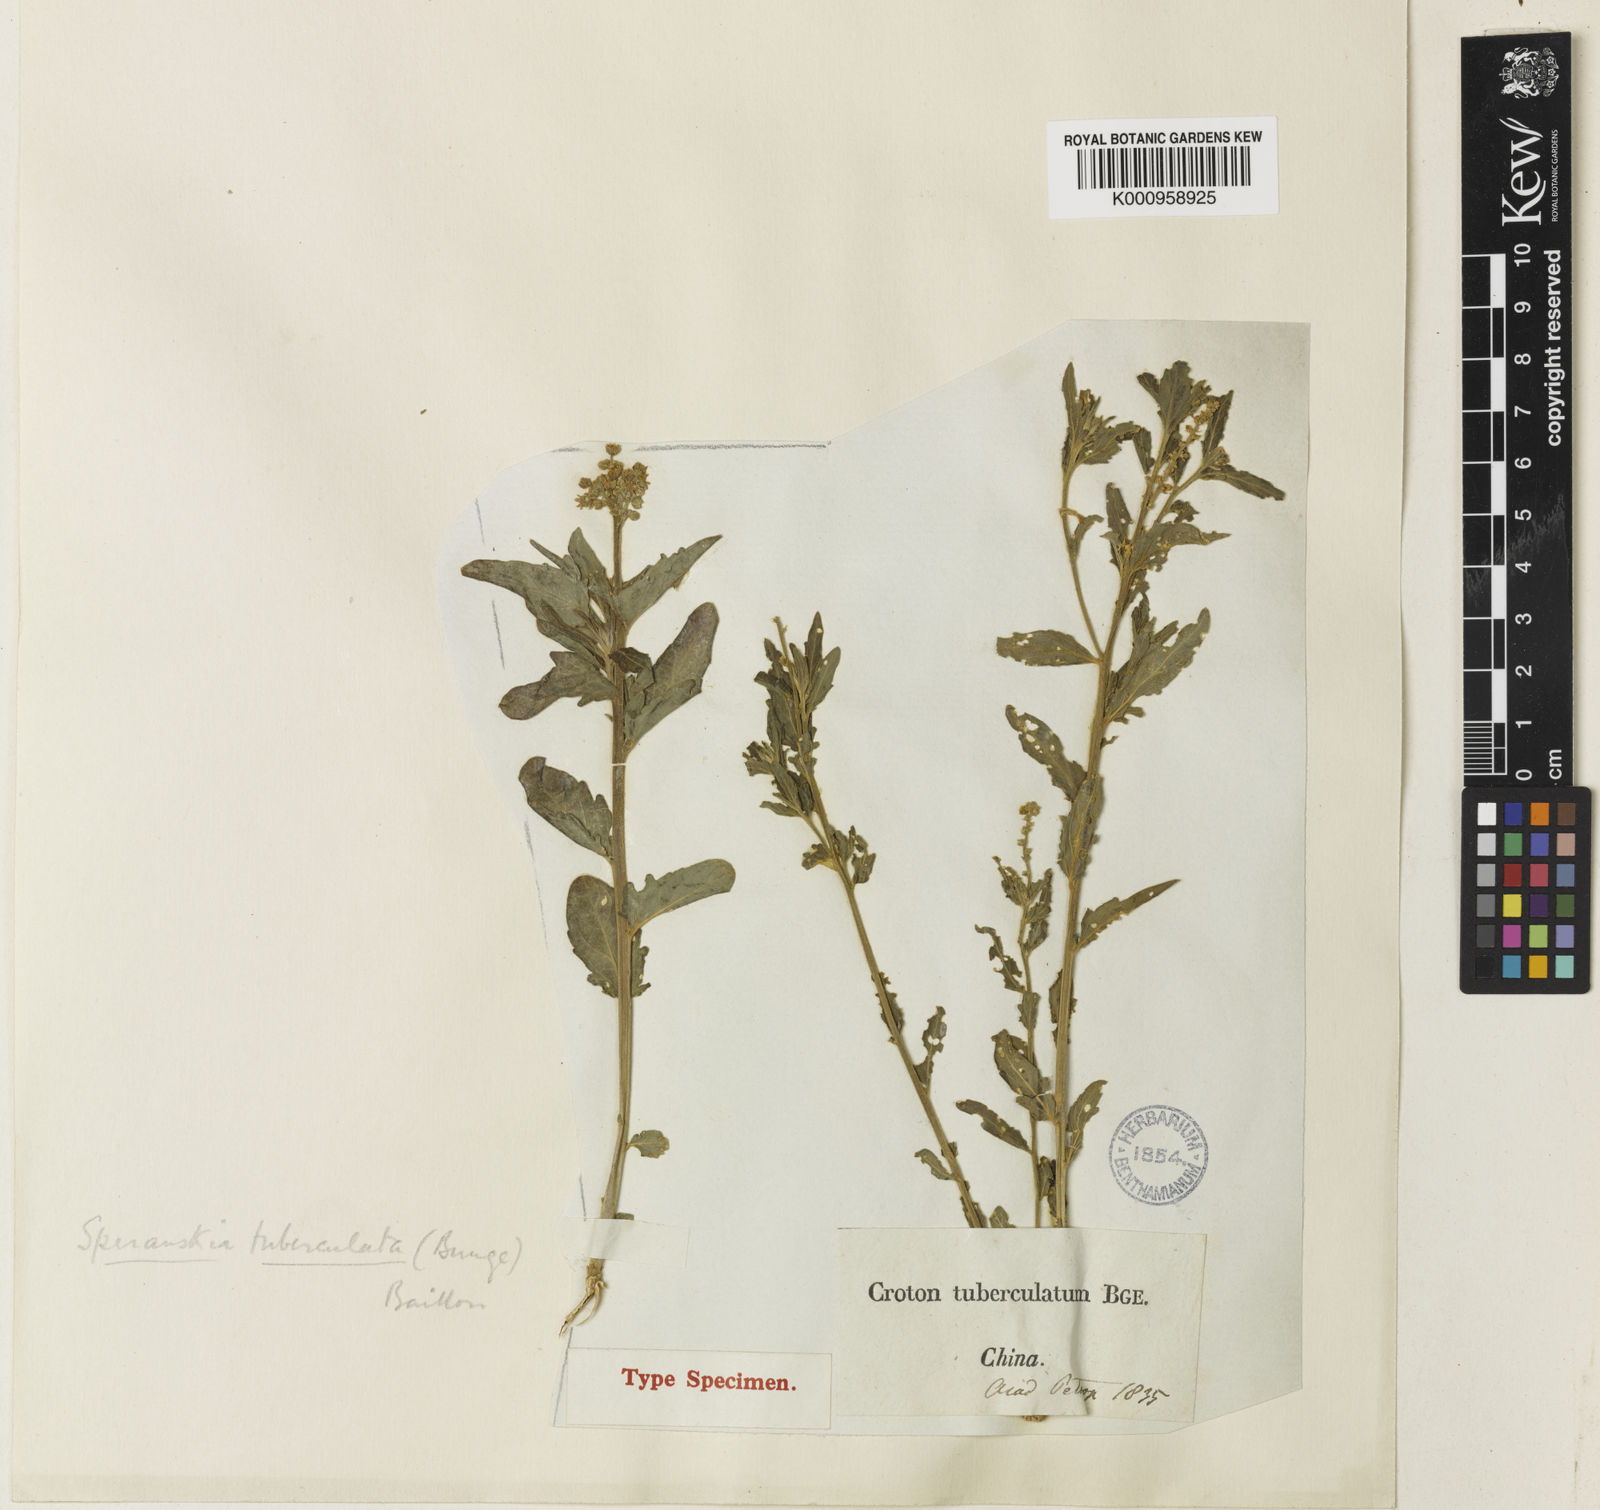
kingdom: Plantae
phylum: Tracheophyta
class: Magnoliopsida
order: Malpighiales
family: Euphorbiaceae
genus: Speranskia
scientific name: Speranskia tuberculata
